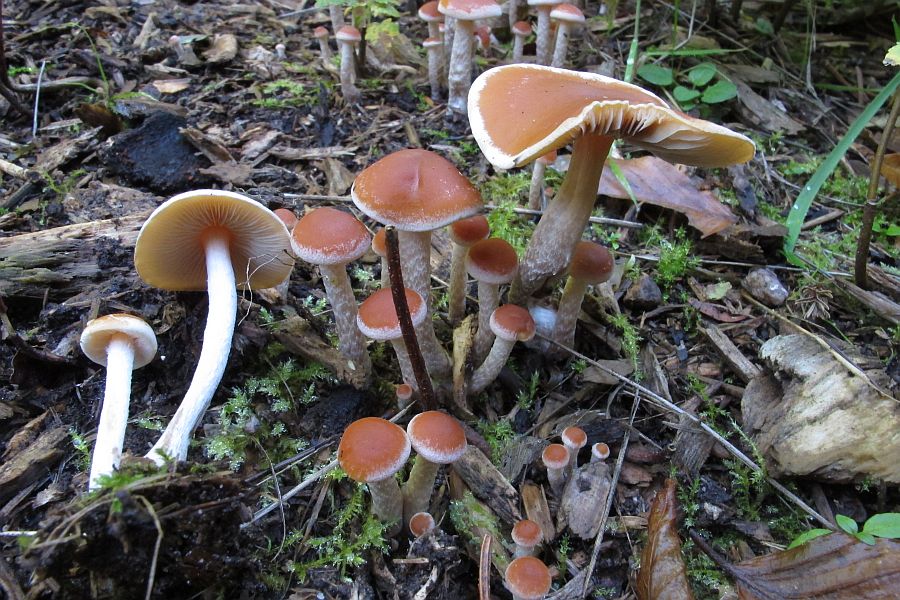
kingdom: Fungi
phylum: Basidiomycota
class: Agaricomycetes
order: Agaricales
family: Strophariaceae
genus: Hypholoma
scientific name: Hypholoma marginatum
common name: enlig svovlhat
